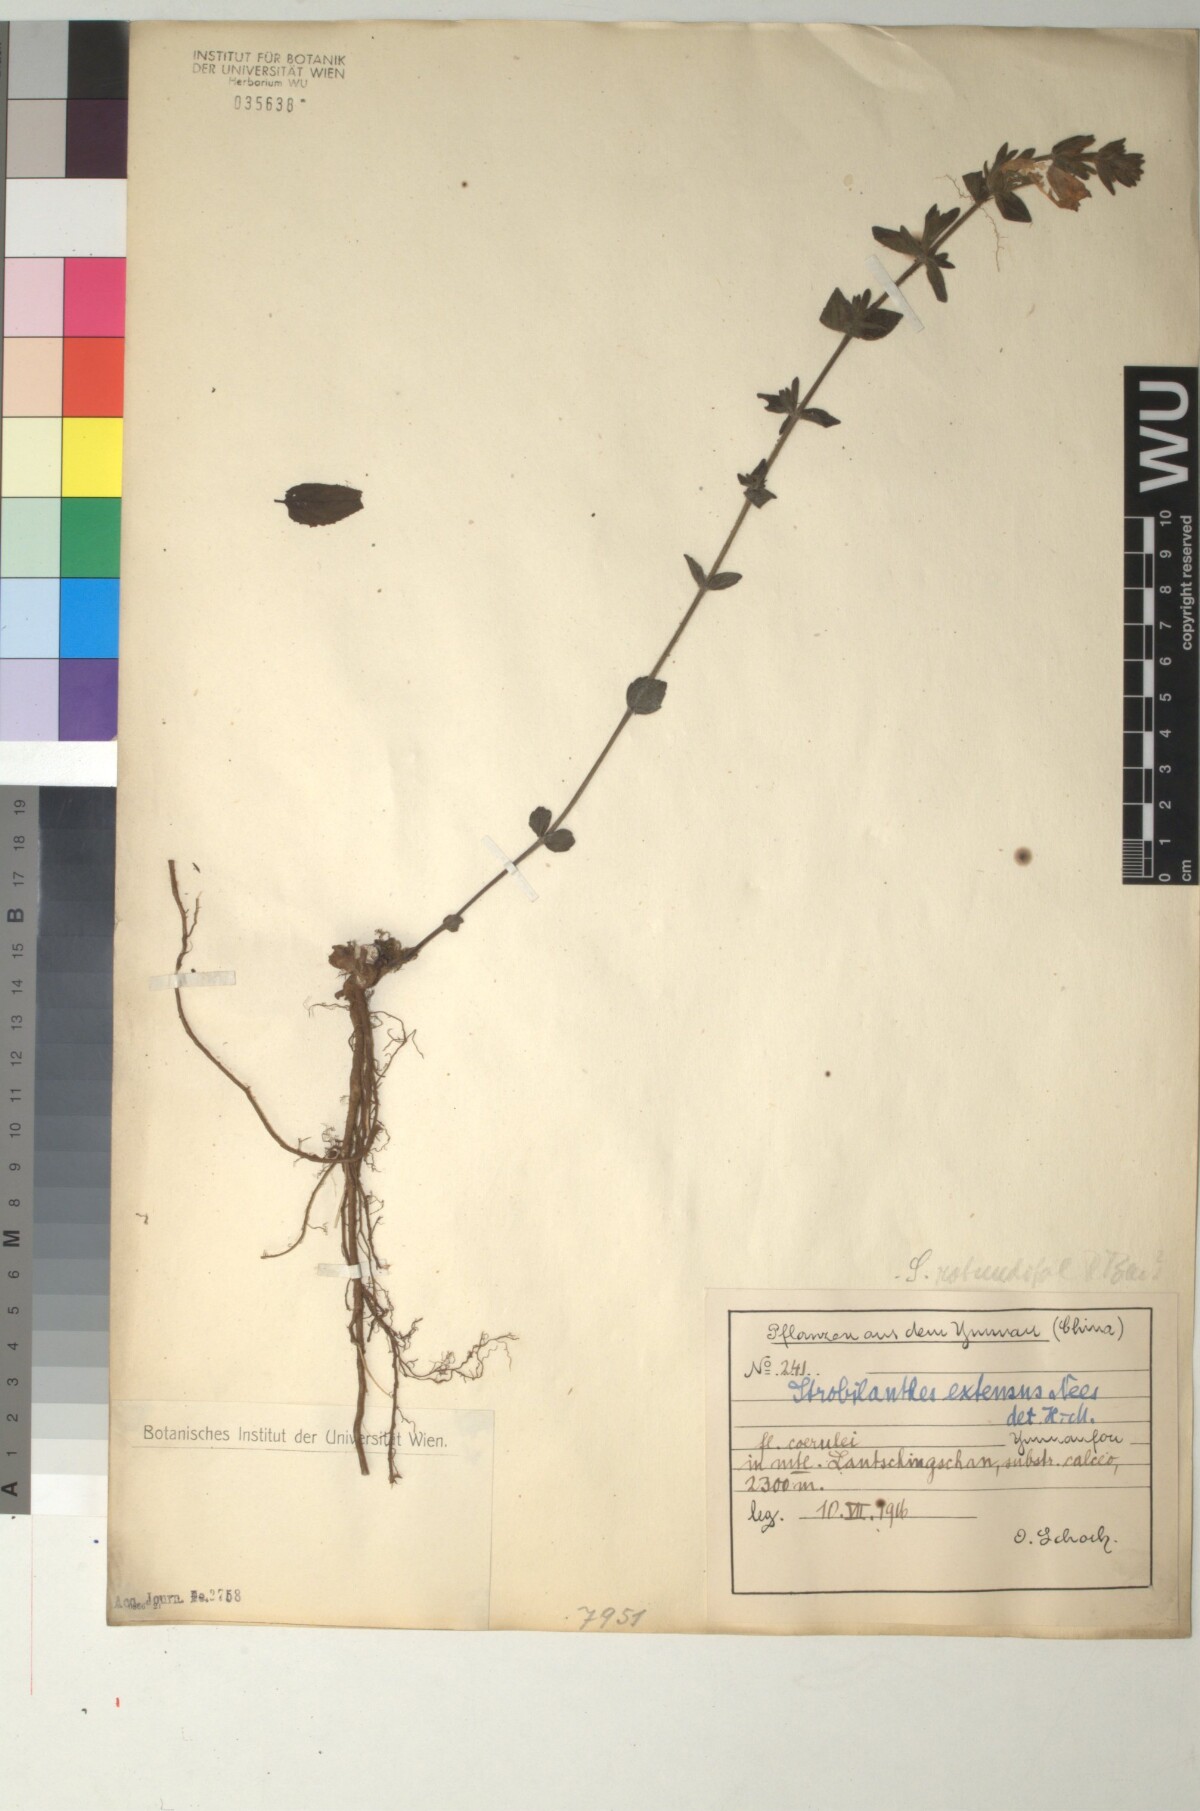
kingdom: Plantae
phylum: Tracheophyta
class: Magnoliopsida
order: Lamiales
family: Acanthaceae
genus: Strobilanthes
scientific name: Strobilanthes extensa
